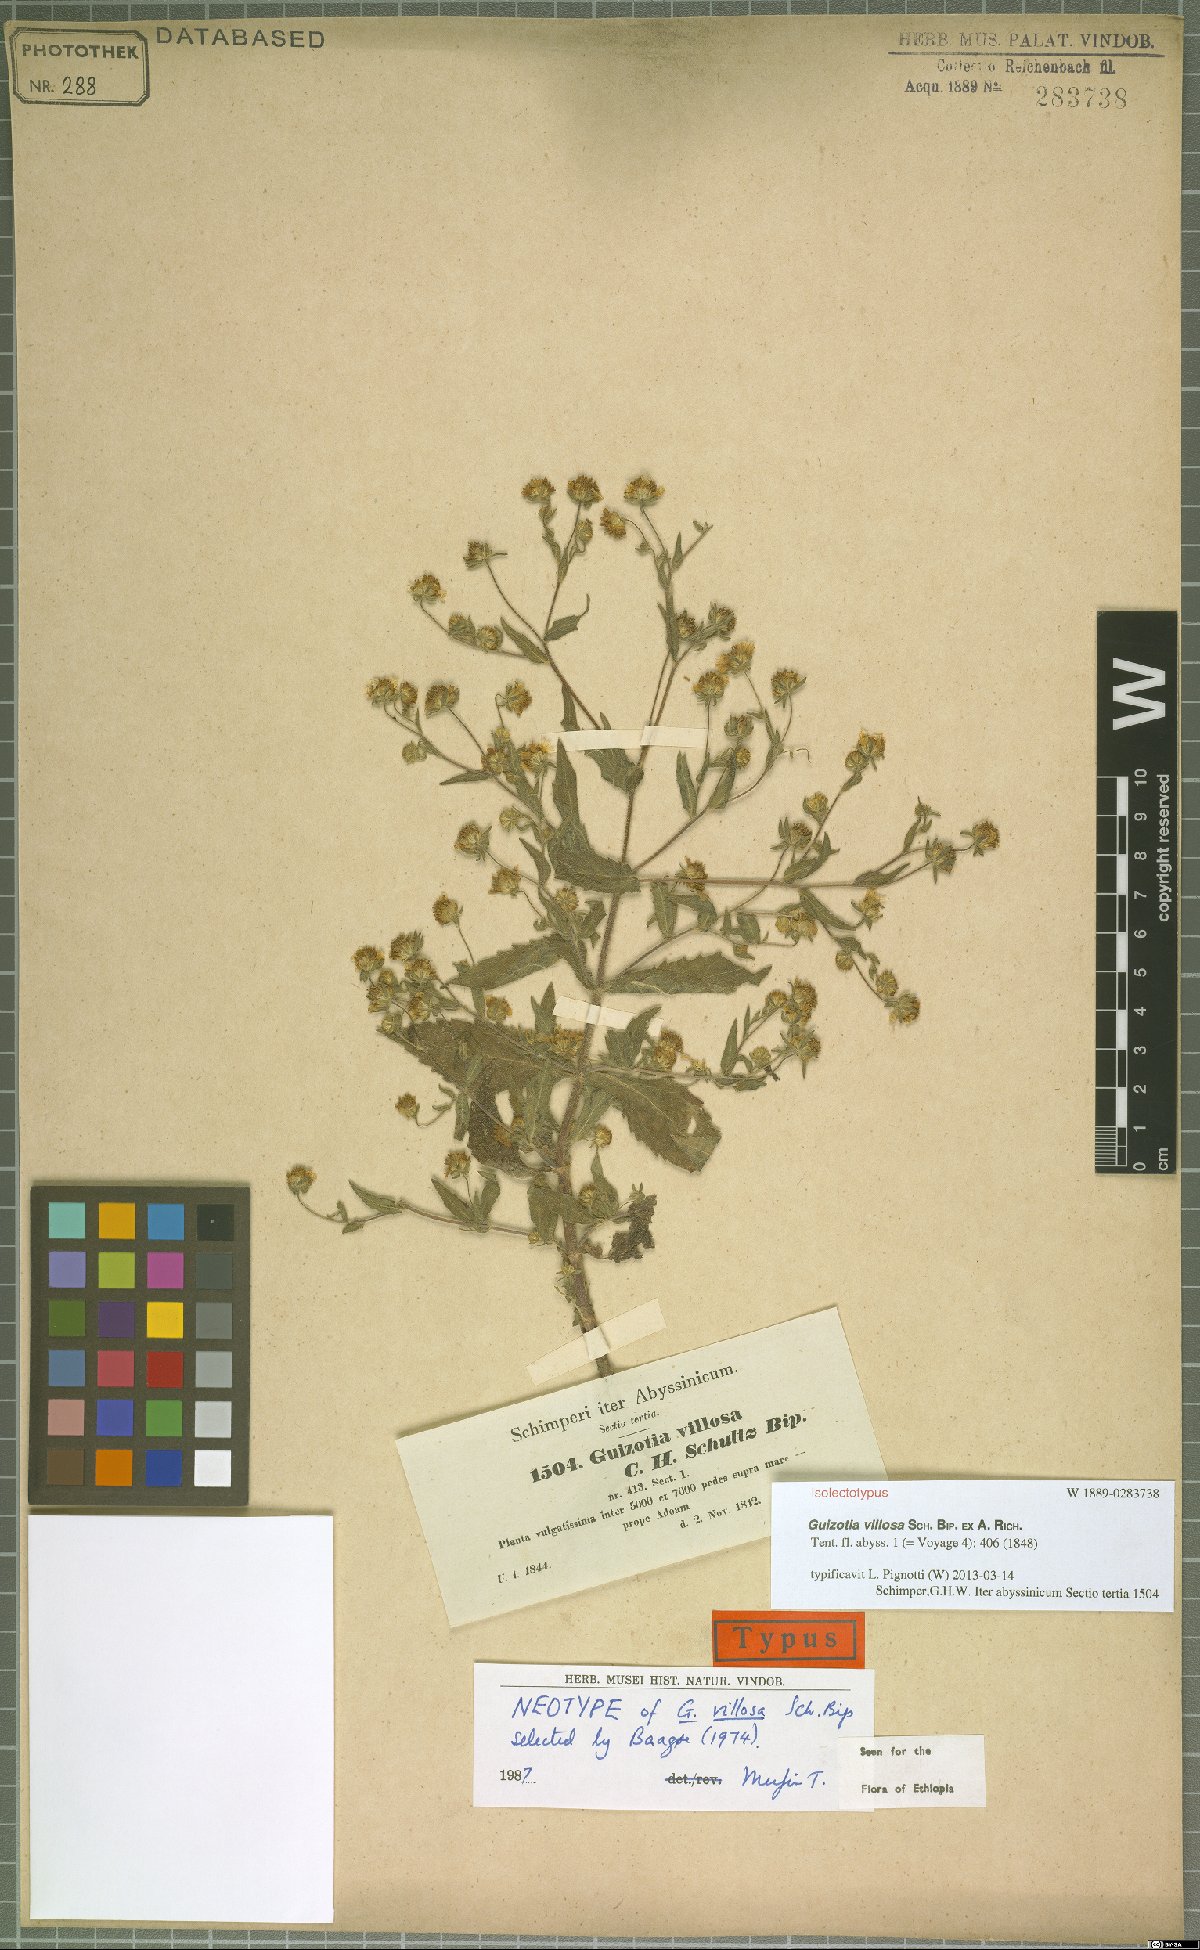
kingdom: Plantae
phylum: Tracheophyta
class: Magnoliopsida
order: Asterales
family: Asteraceae
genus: Guizotia
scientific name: Guizotia villosa
